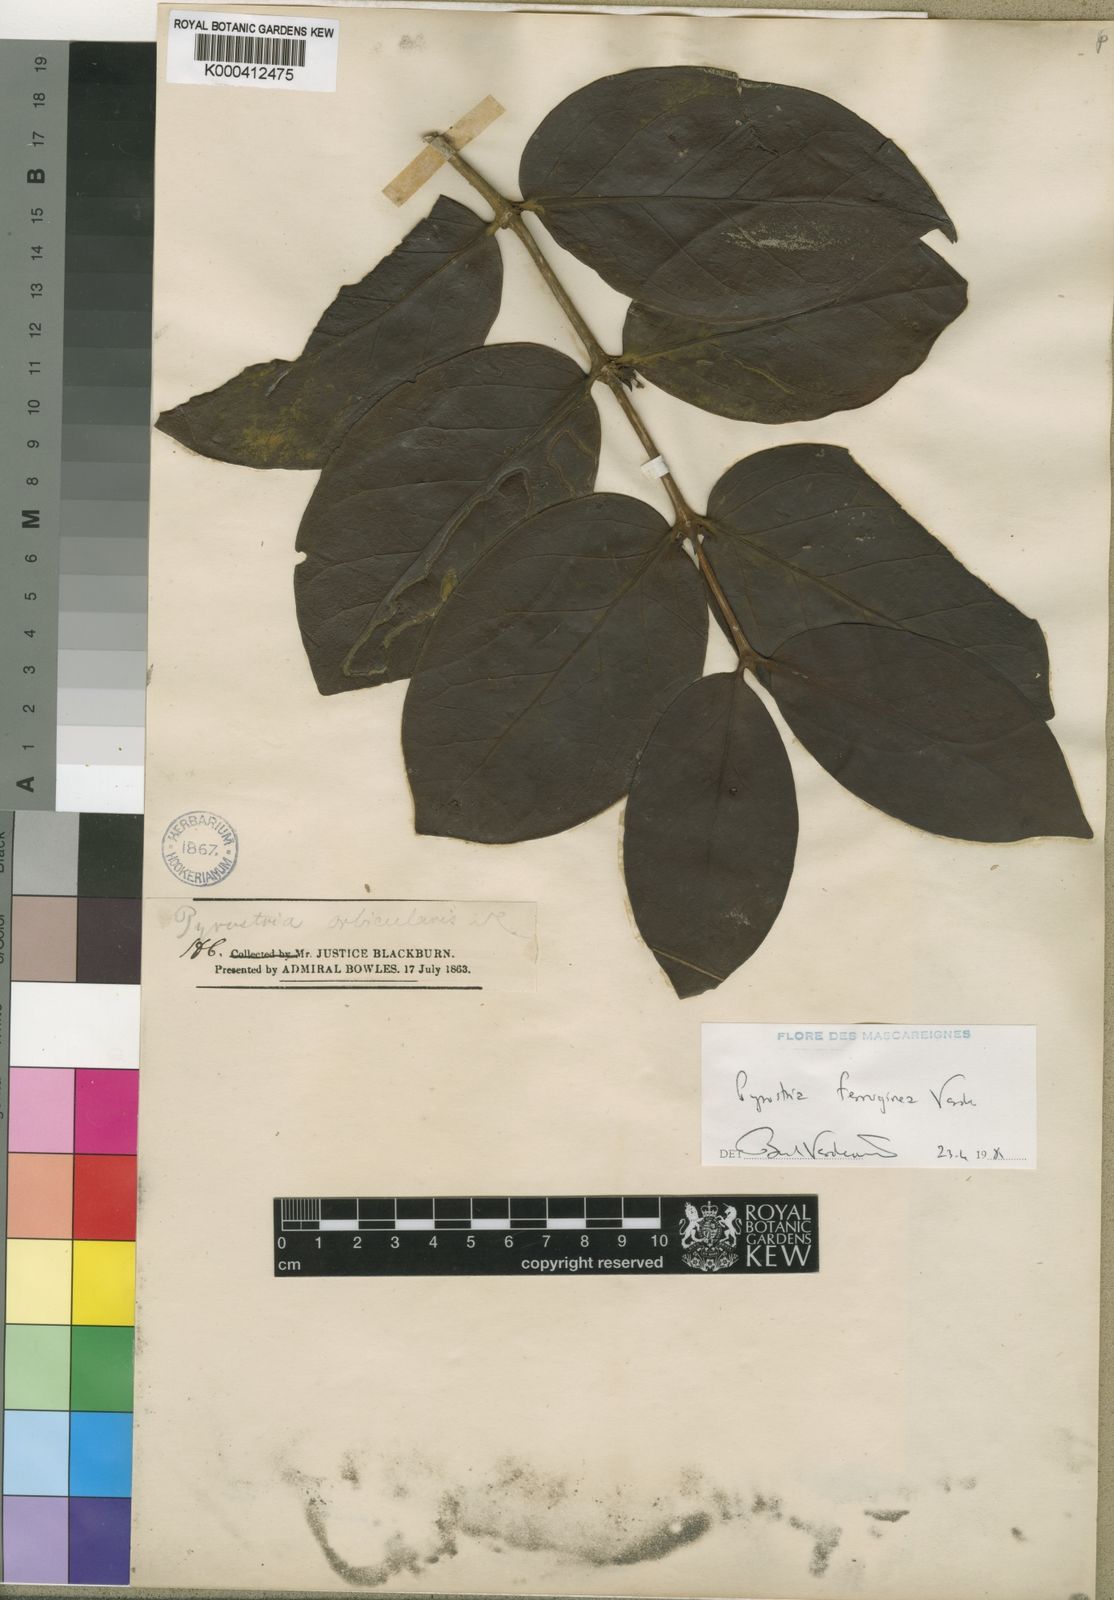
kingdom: Plantae
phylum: Tracheophyta
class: Magnoliopsida
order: Gentianales
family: Rubiaceae
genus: Pyrostria
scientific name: Pyrostria ferruginea
